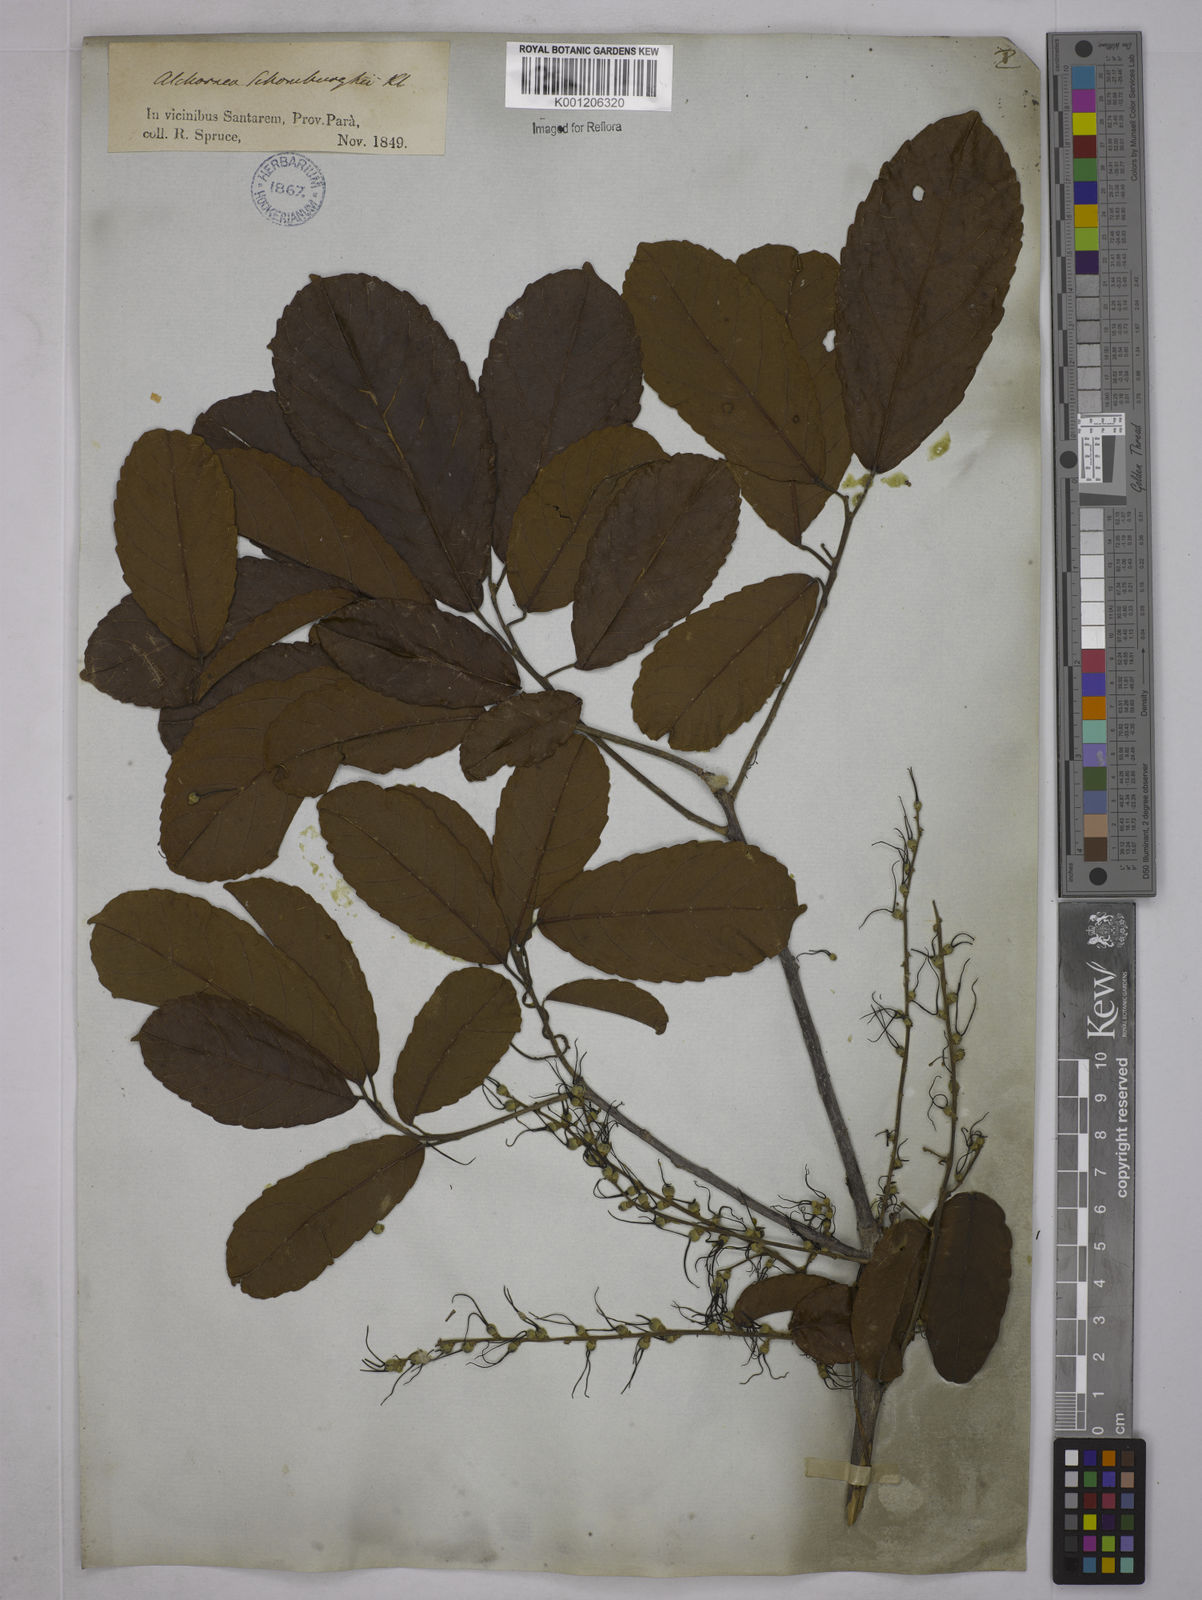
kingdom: Plantae
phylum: Tracheophyta
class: Magnoliopsida
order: Malpighiales
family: Euphorbiaceae
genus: Alchornea
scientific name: Alchornea discolor
